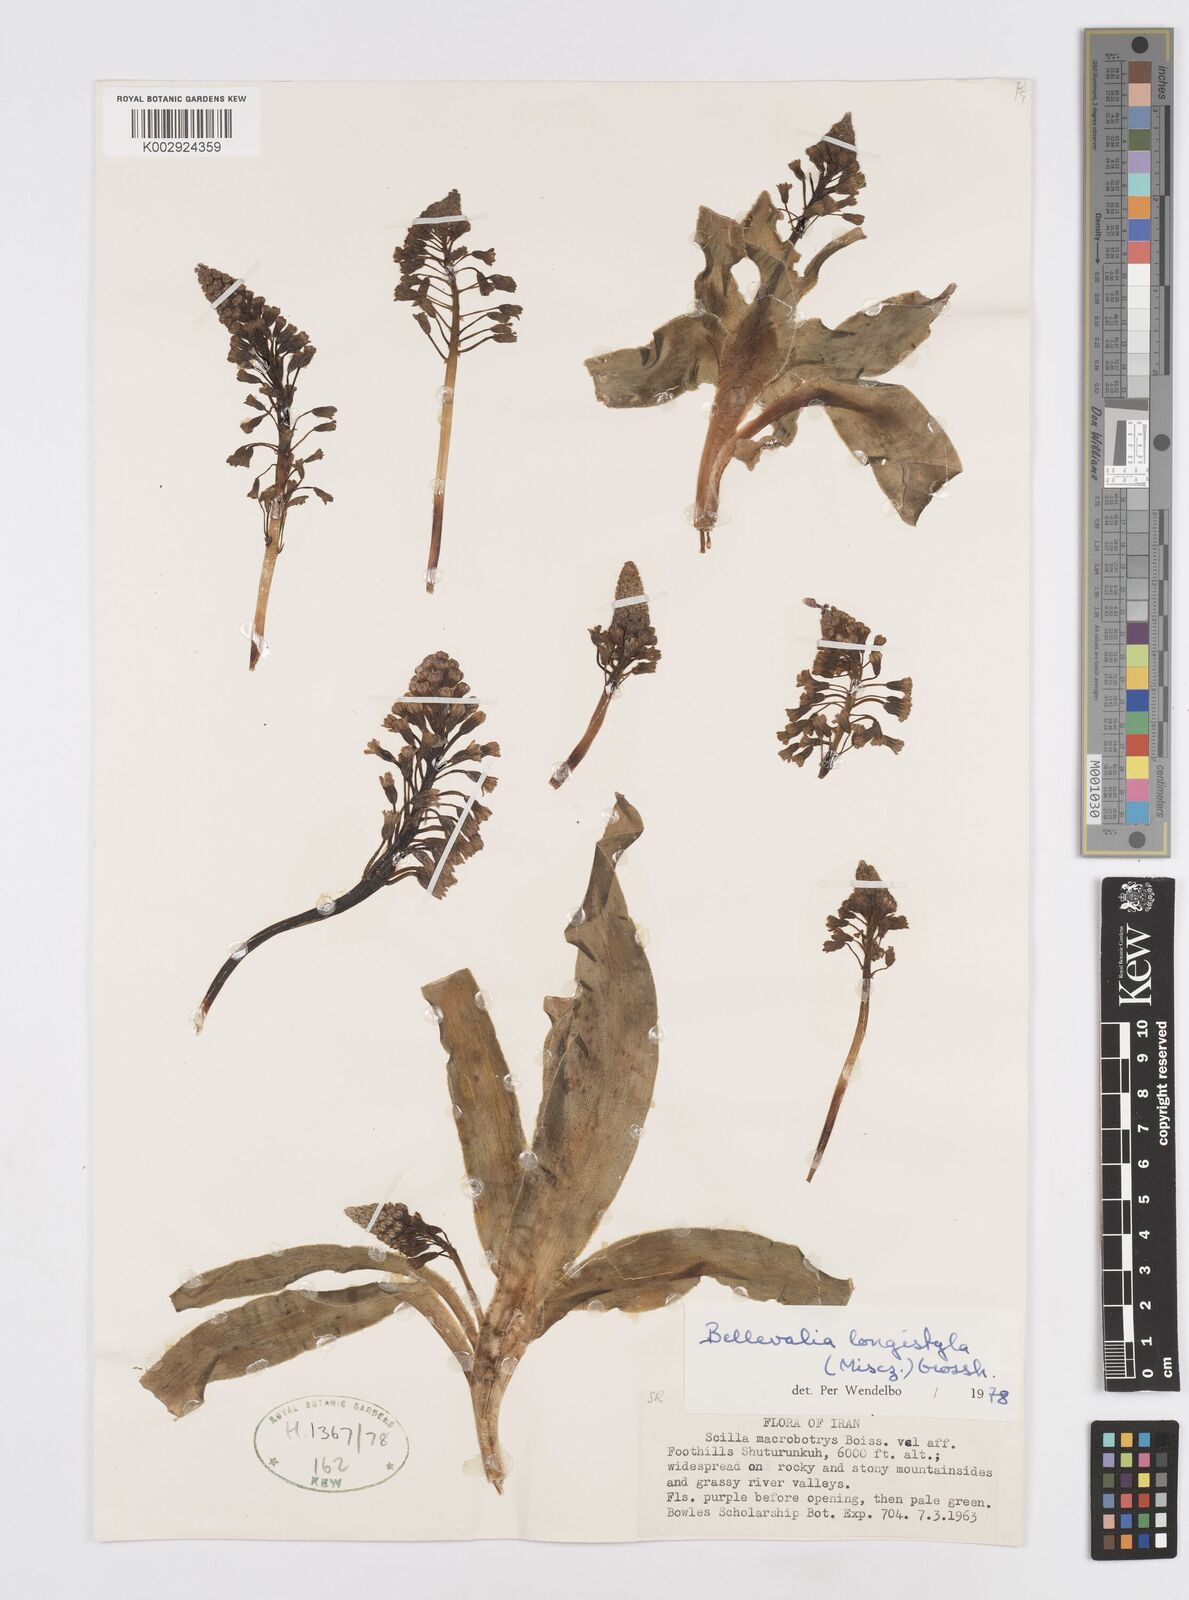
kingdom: Plantae
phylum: Tracheophyta
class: Liliopsida
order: Asparagales
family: Asparagaceae
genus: Bellevalia
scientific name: Bellevalia longistyla
